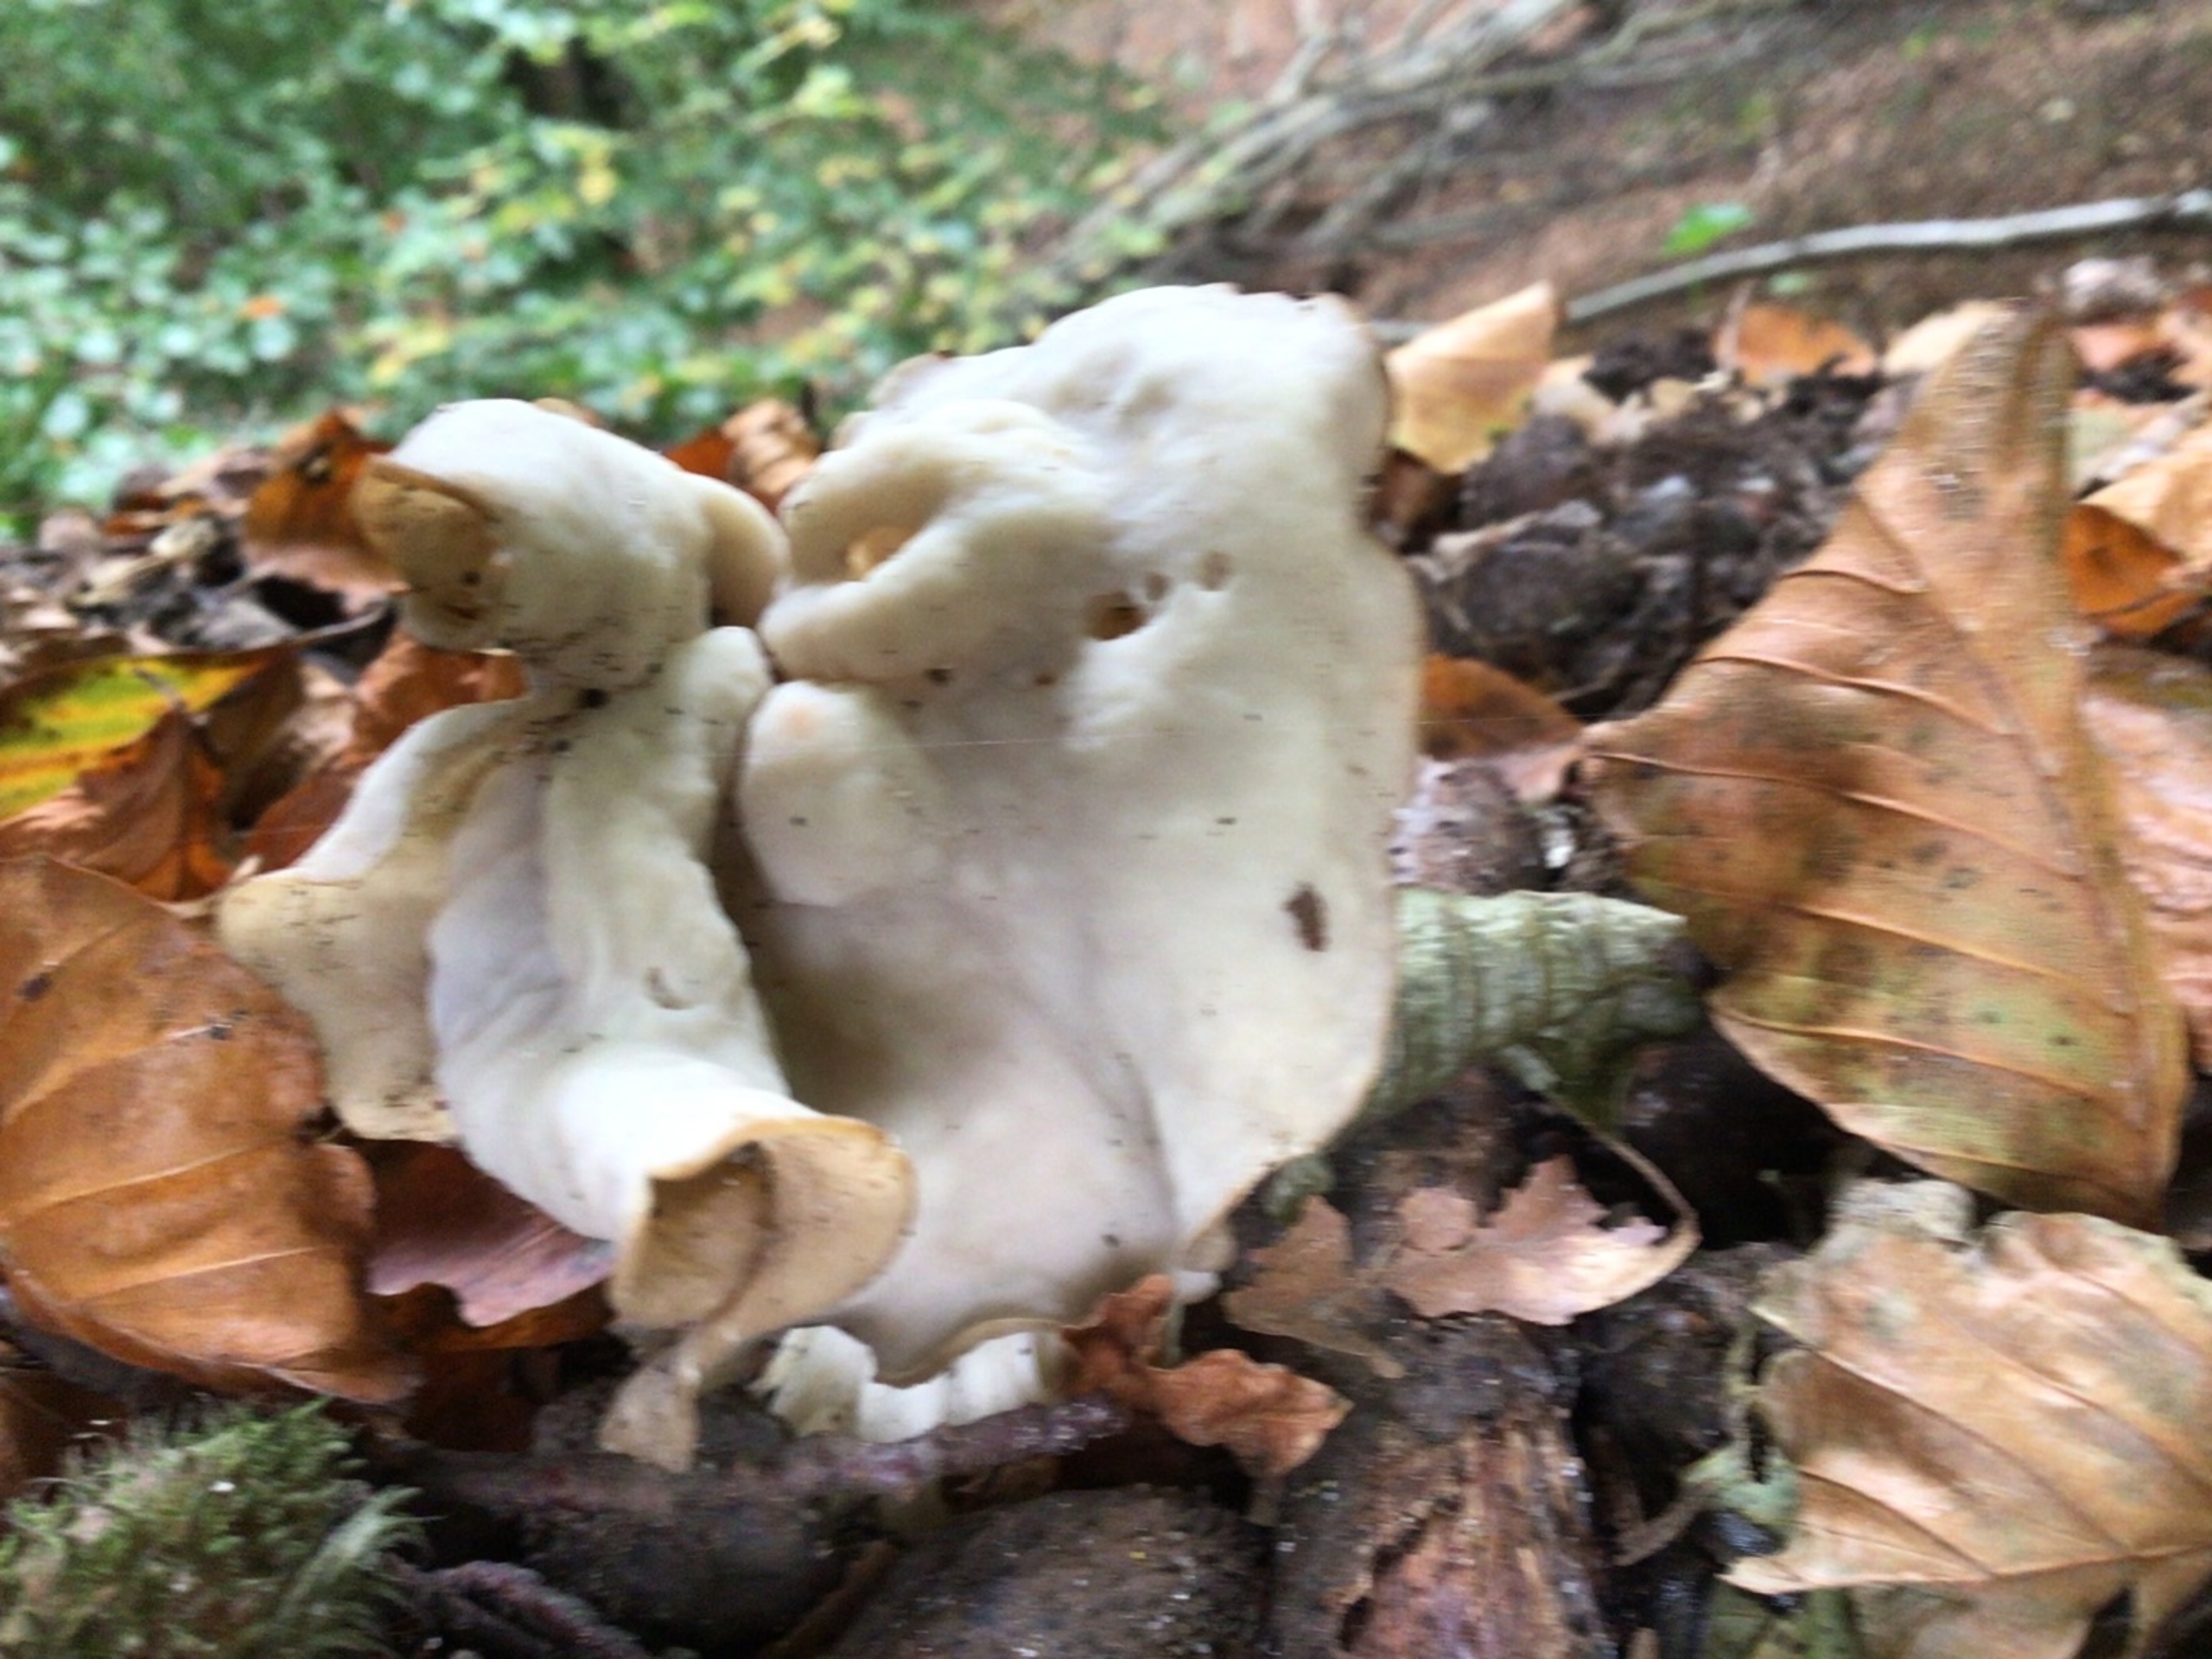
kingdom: Fungi
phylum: Ascomycota
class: Pezizomycetes
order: Pezizales
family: Helvellaceae
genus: Helvella
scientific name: Helvella crispa
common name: Kruset foldhat
